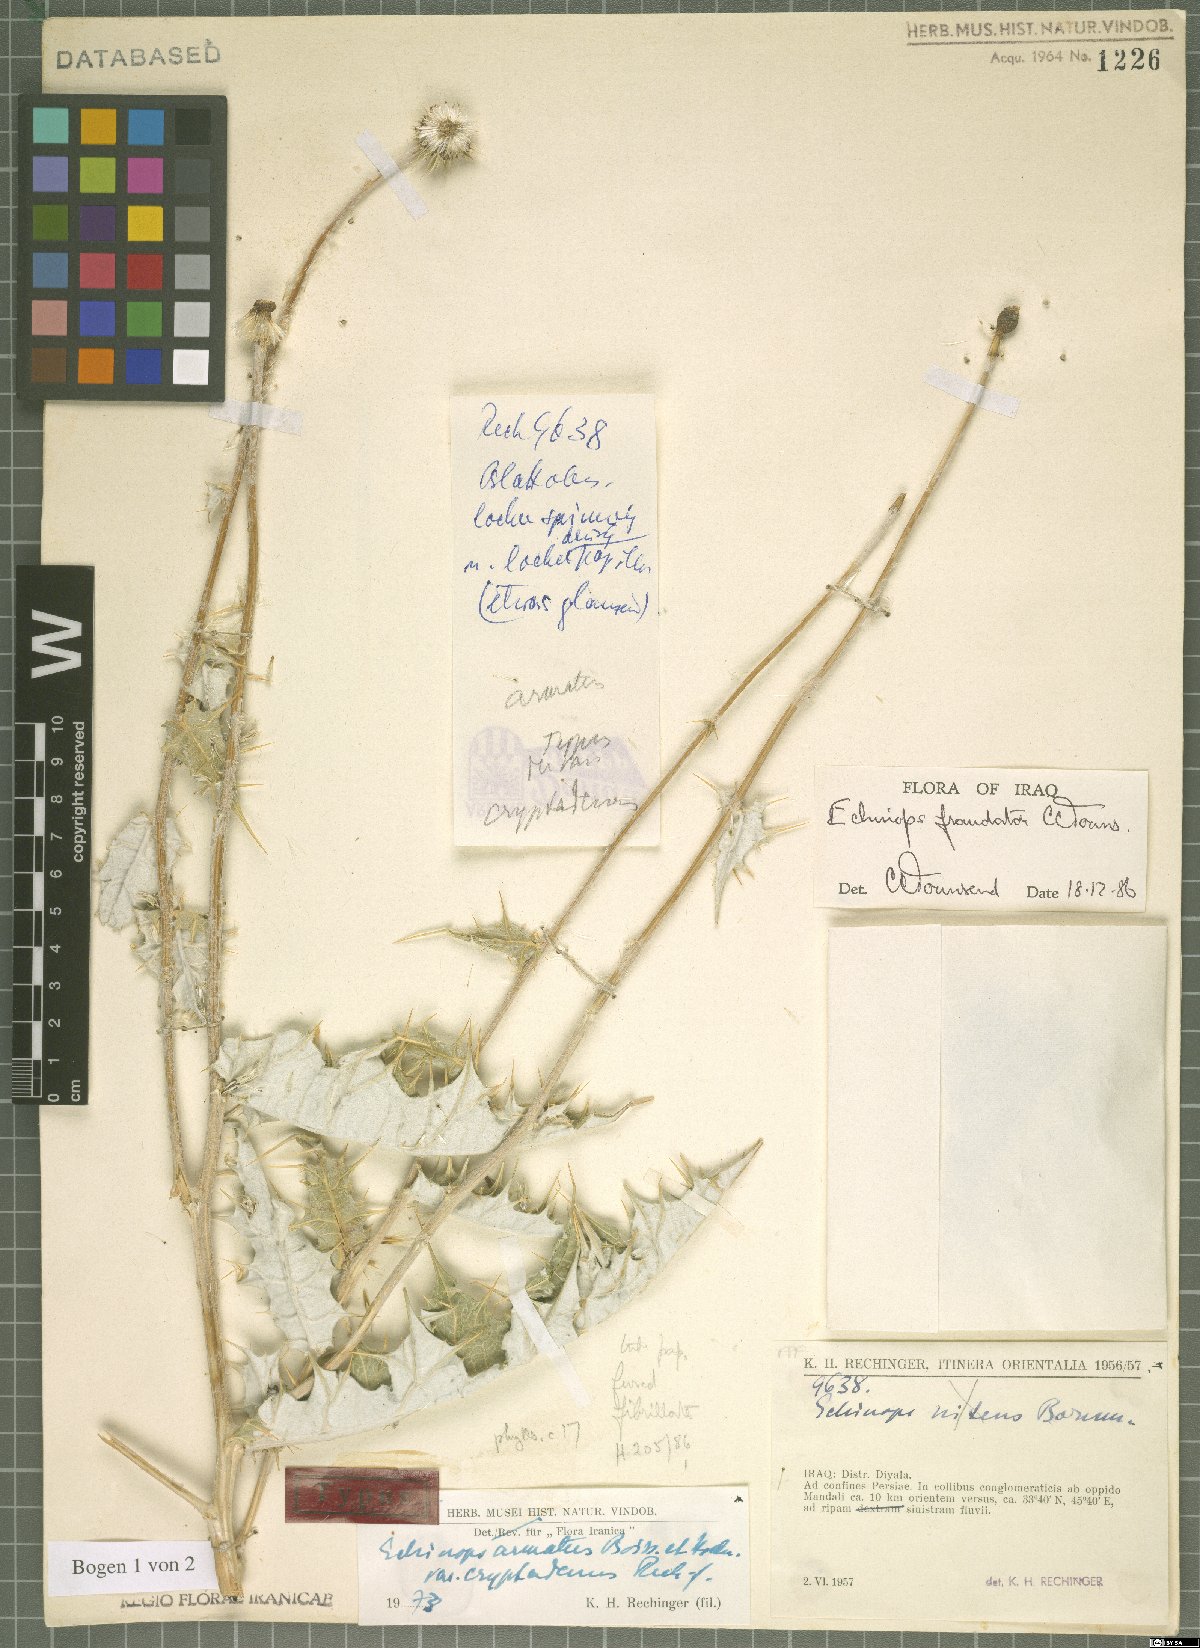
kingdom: Plantae
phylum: Tracheophyta
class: Magnoliopsida
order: Asterales
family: Asteraceae
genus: Echinops
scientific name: Echinops fraudator
